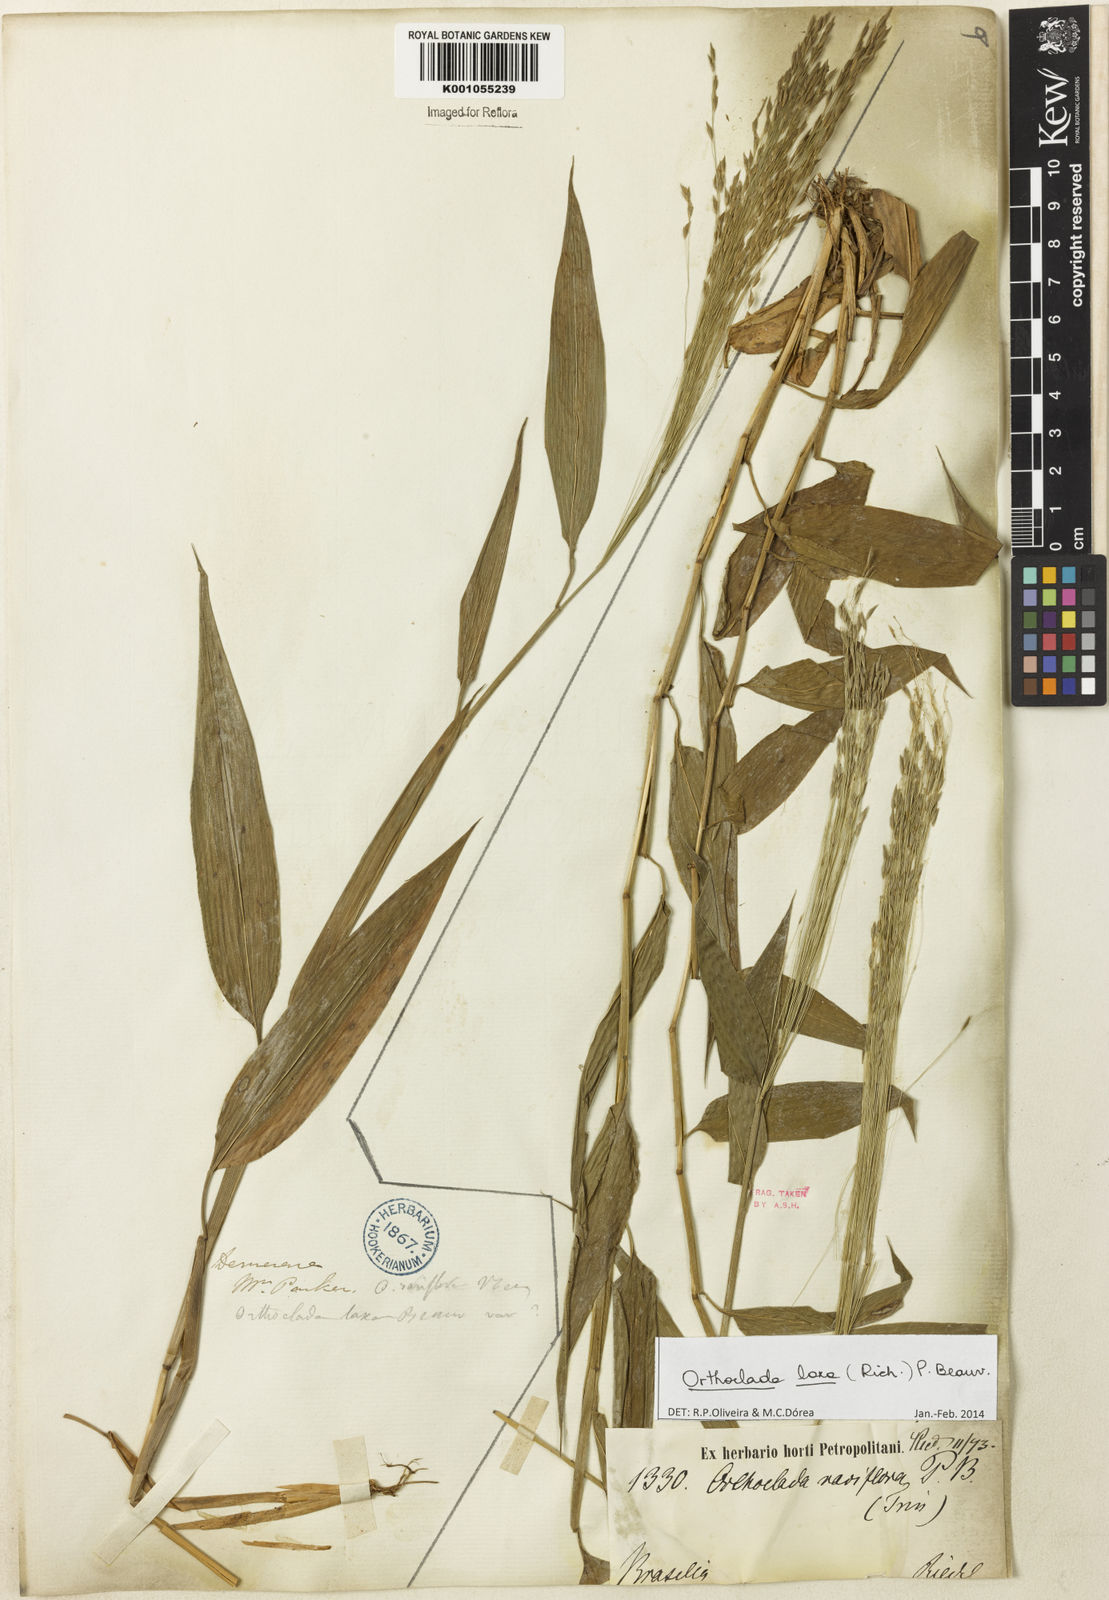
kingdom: Plantae
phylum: Tracheophyta
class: Liliopsida
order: Poales
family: Poaceae
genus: Orthoclada
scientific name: Orthoclada laxa
